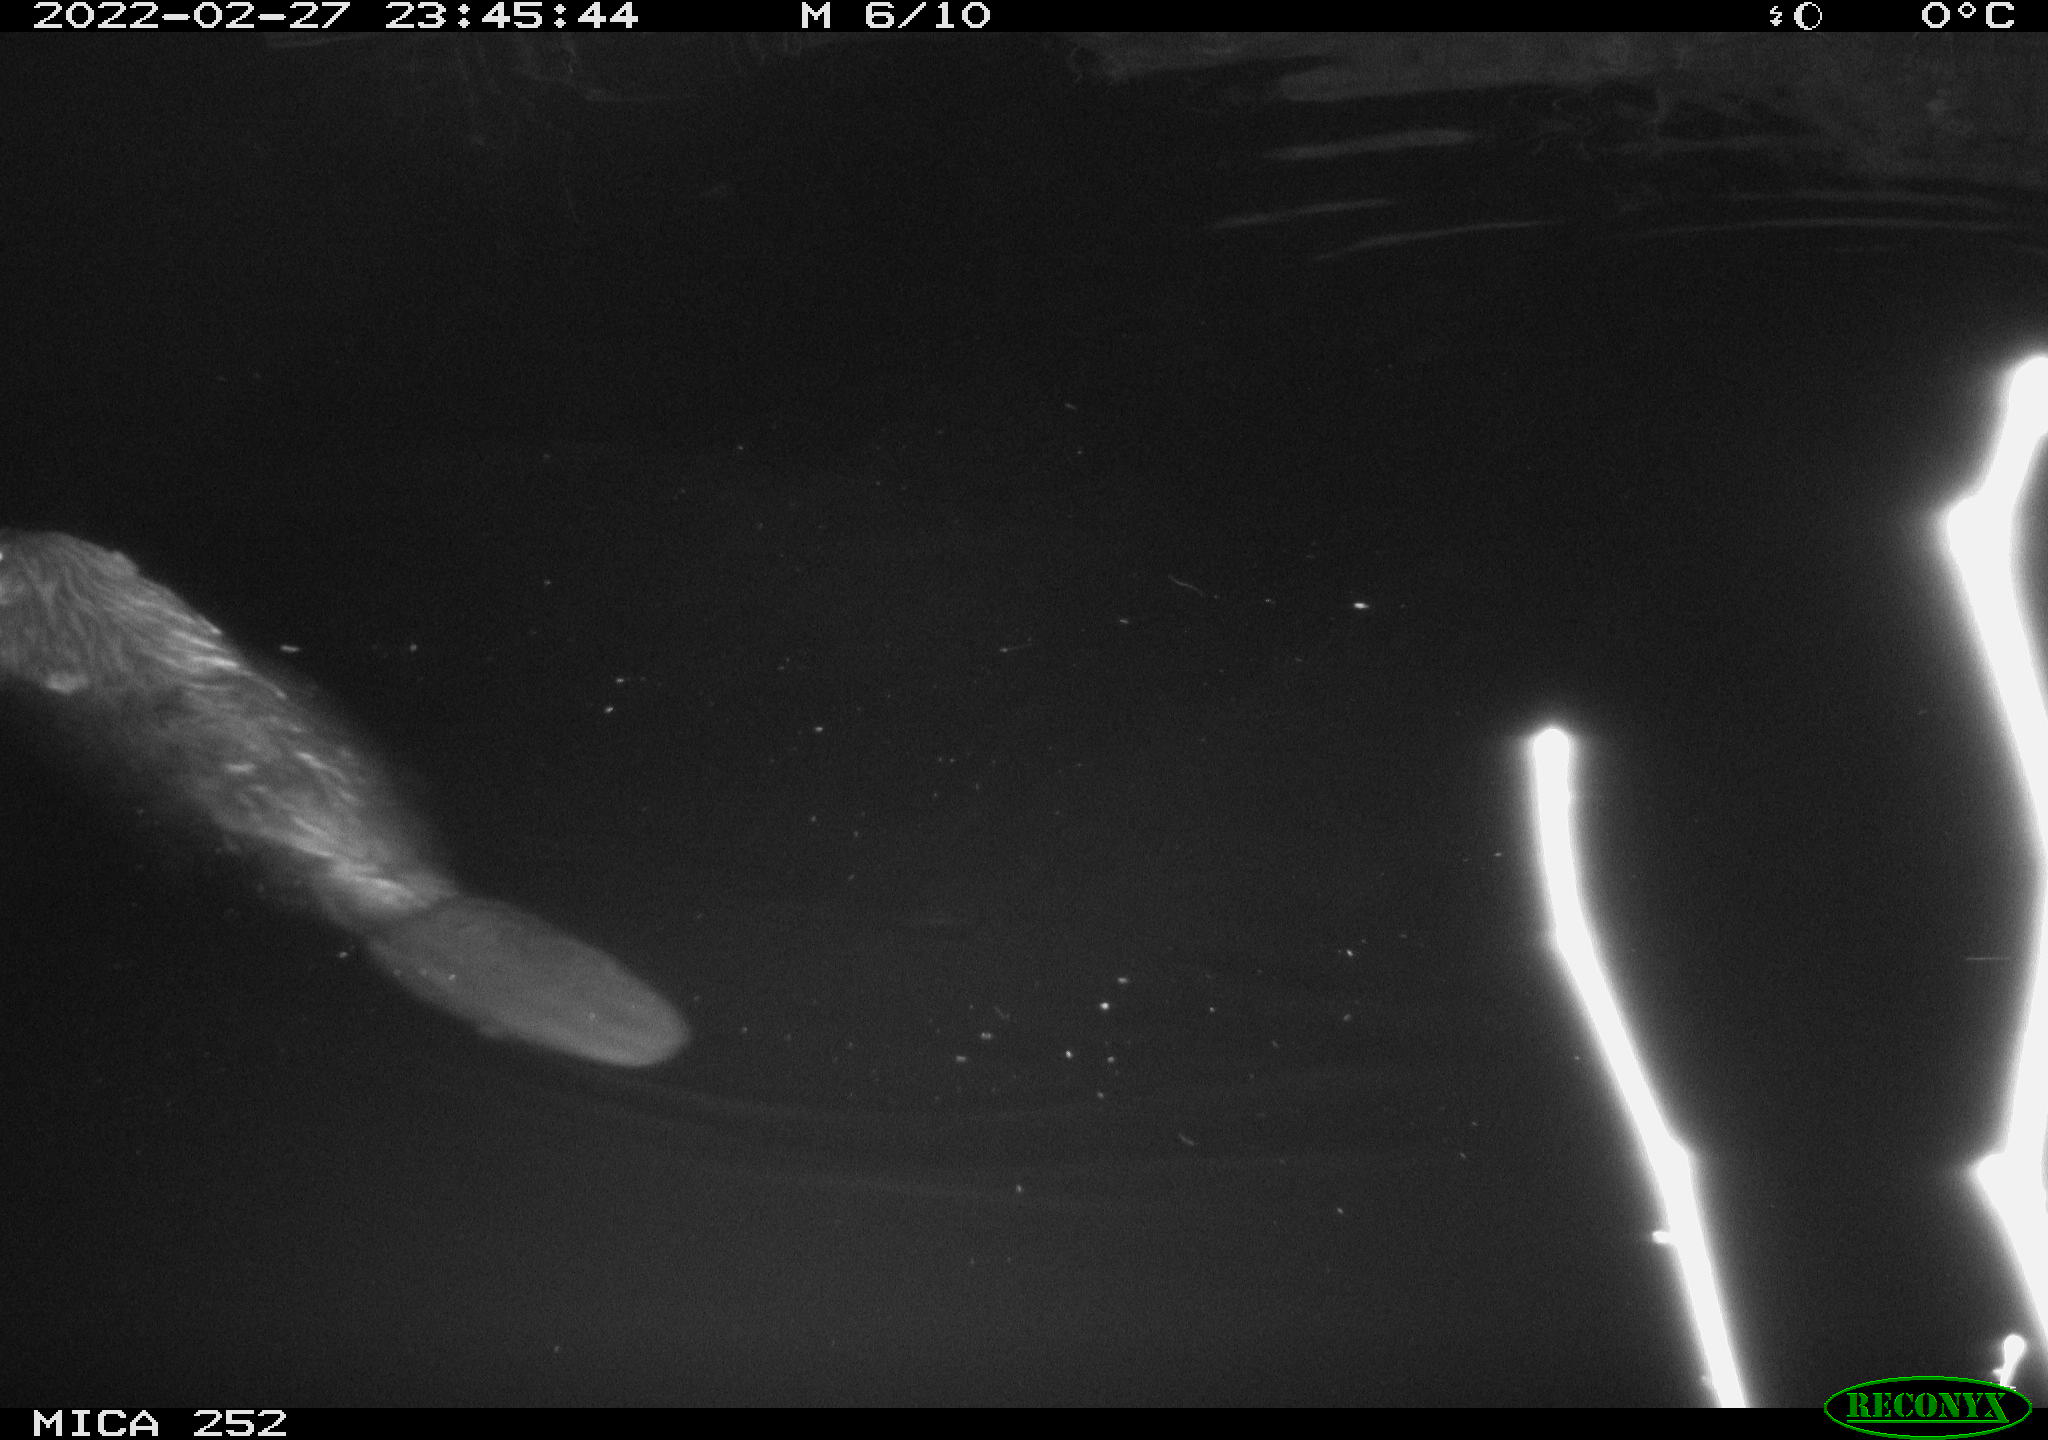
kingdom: Animalia
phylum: Chordata
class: Mammalia
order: Rodentia
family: Castoridae
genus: Castor
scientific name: Castor fiber
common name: Eurasian beaver
